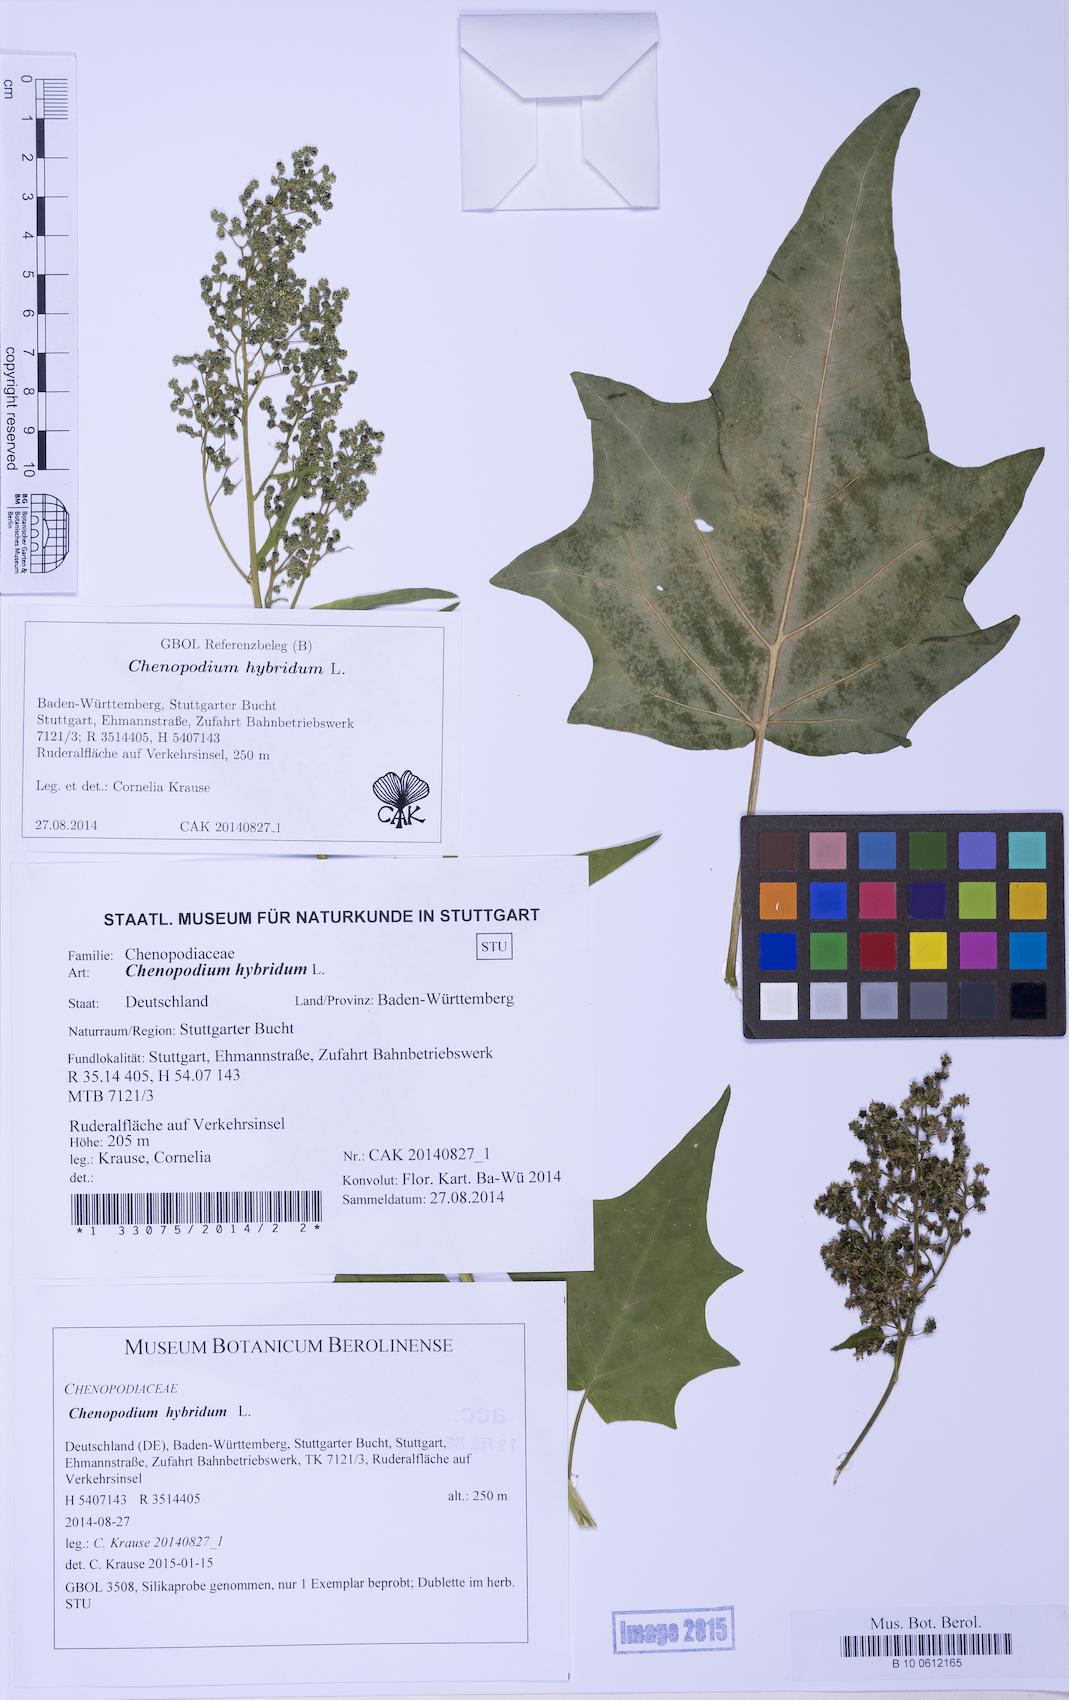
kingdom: Plantae
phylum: Tracheophyta
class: Magnoliopsida
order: Caryophyllales
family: Amaranthaceae
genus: Chenopodiastrum
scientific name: Chenopodiastrum hybridum
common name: Mapleleaf goosefoot
